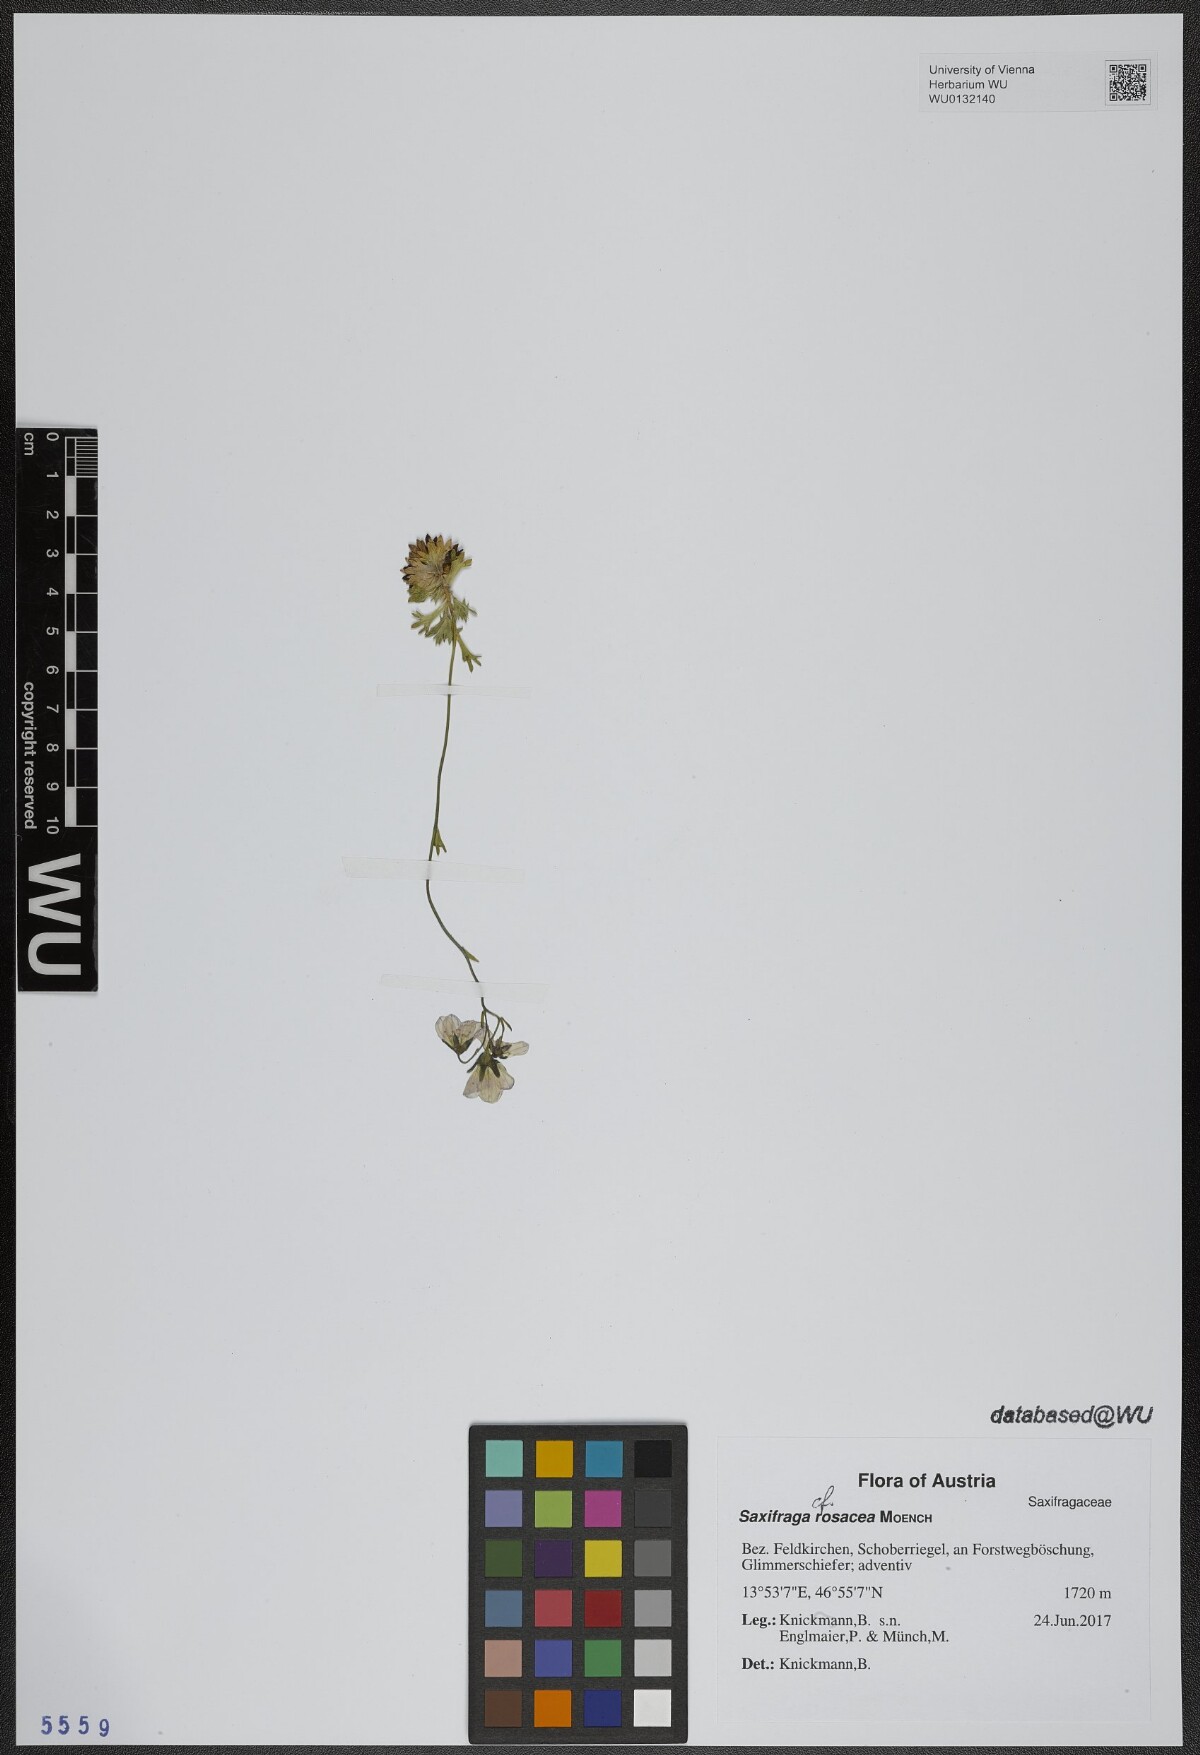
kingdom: Plantae
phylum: Tracheophyta
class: Magnoliopsida
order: Saxifragales
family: Saxifragaceae
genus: Saxifraga
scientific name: Saxifraga rosacea
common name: Irish saxifrage
